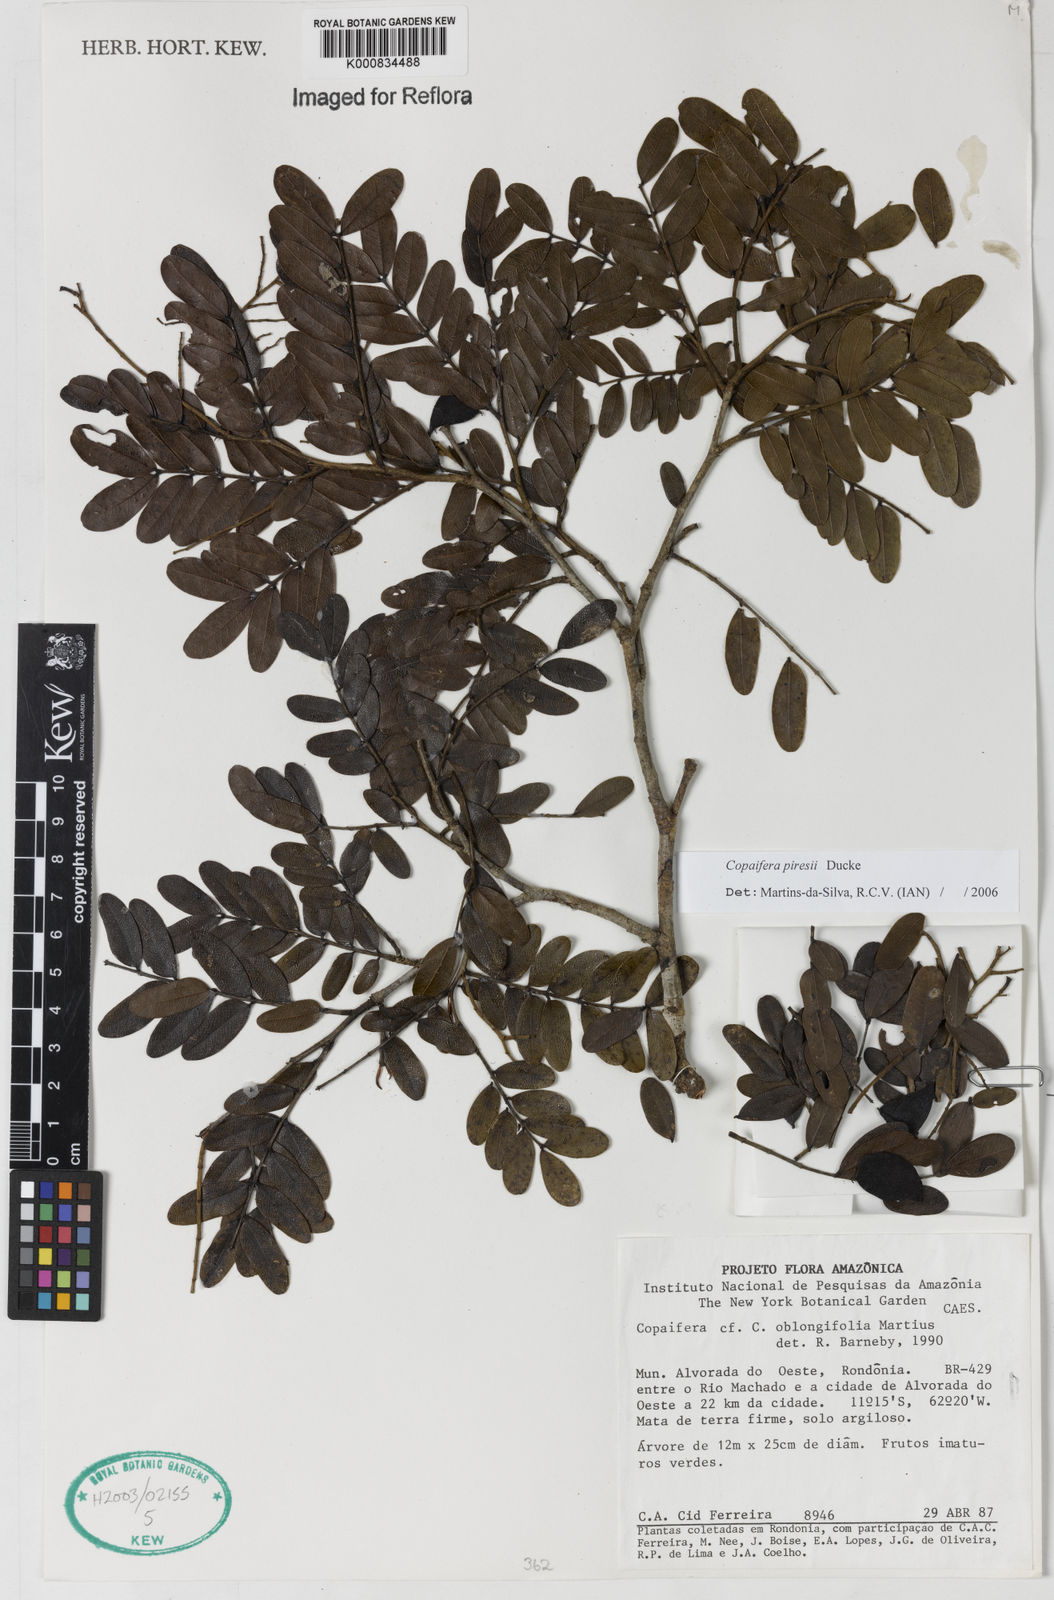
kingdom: Plantae
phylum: Tracheophyta
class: Magnoliopsida
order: Fabales
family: Fabaceae
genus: Copaifera
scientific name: Copaifera piresii
